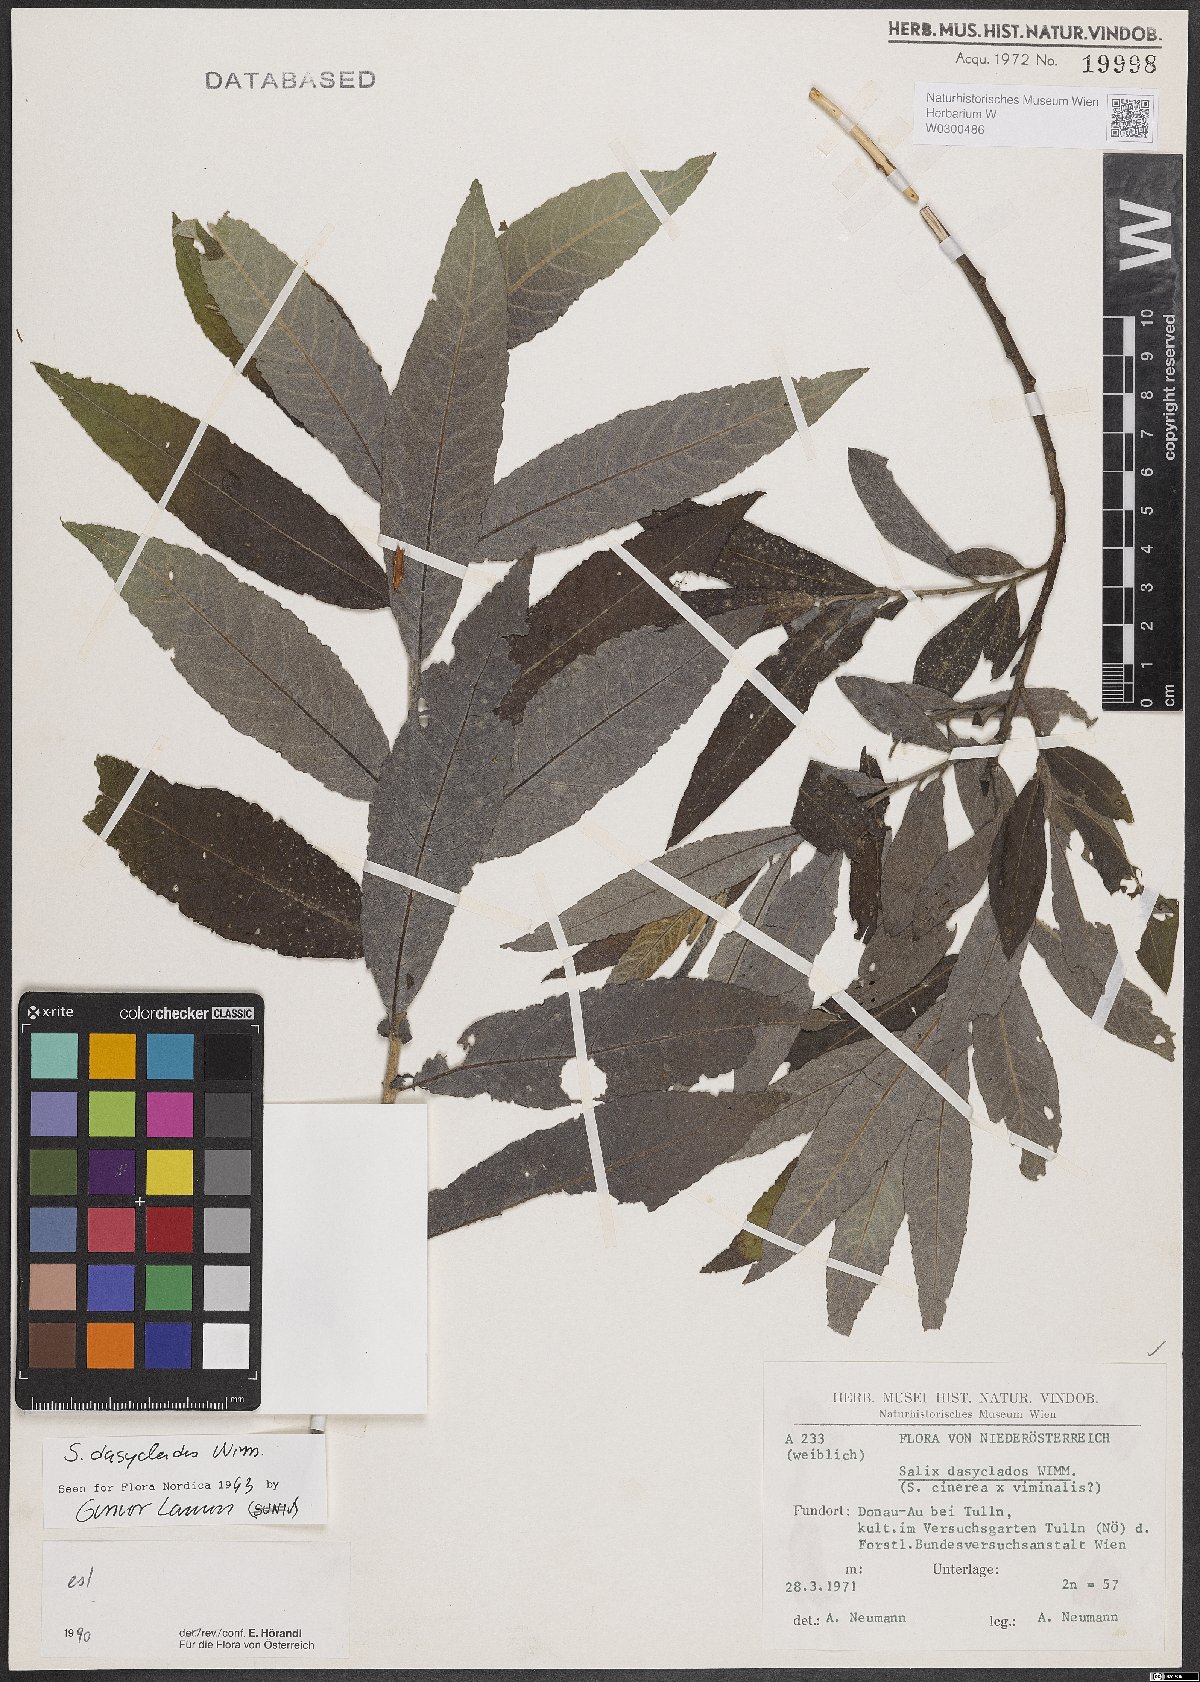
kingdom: Plantae
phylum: Tracheophyta
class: Magnoliopsida
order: Malpighiales
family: Salicaceae
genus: Salix
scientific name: Salix gmelinii
